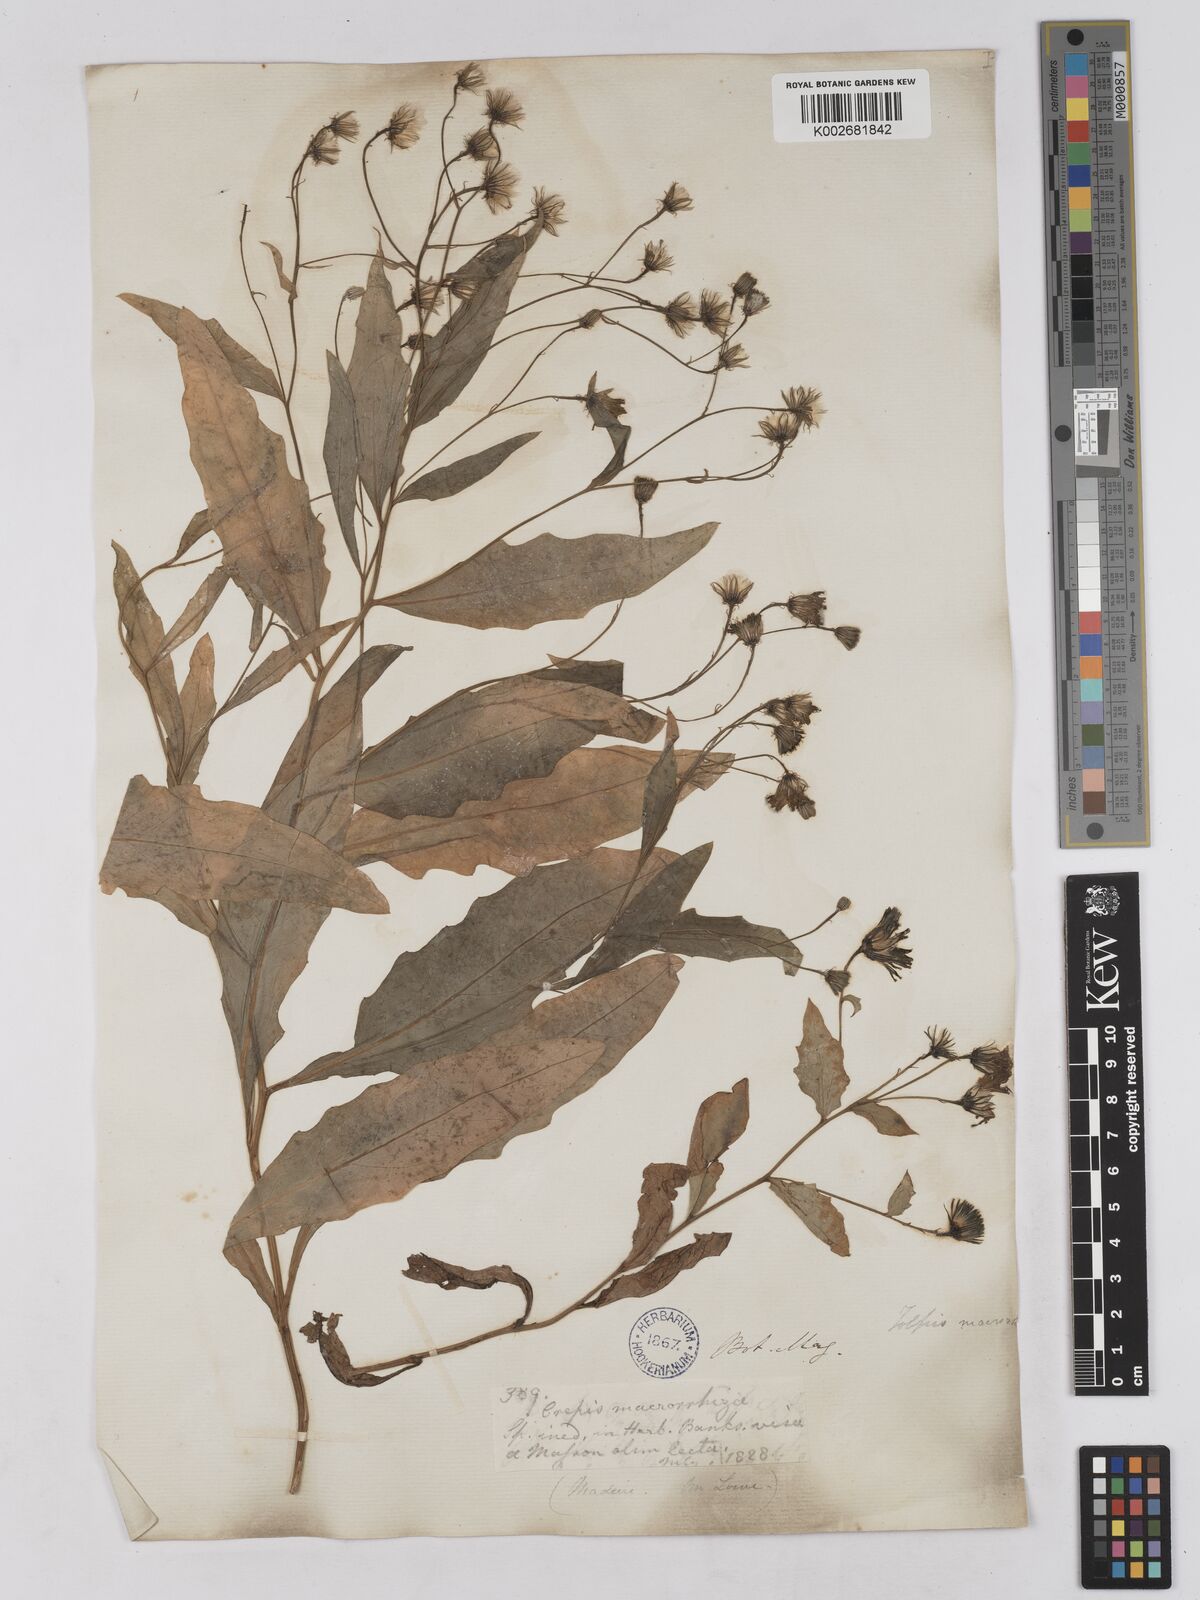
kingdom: Plantae
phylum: Tracheophyta
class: Magnoliopsida
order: Asterales
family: Asteraceae
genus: Tolpis
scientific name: Tolpis macrorhiza
